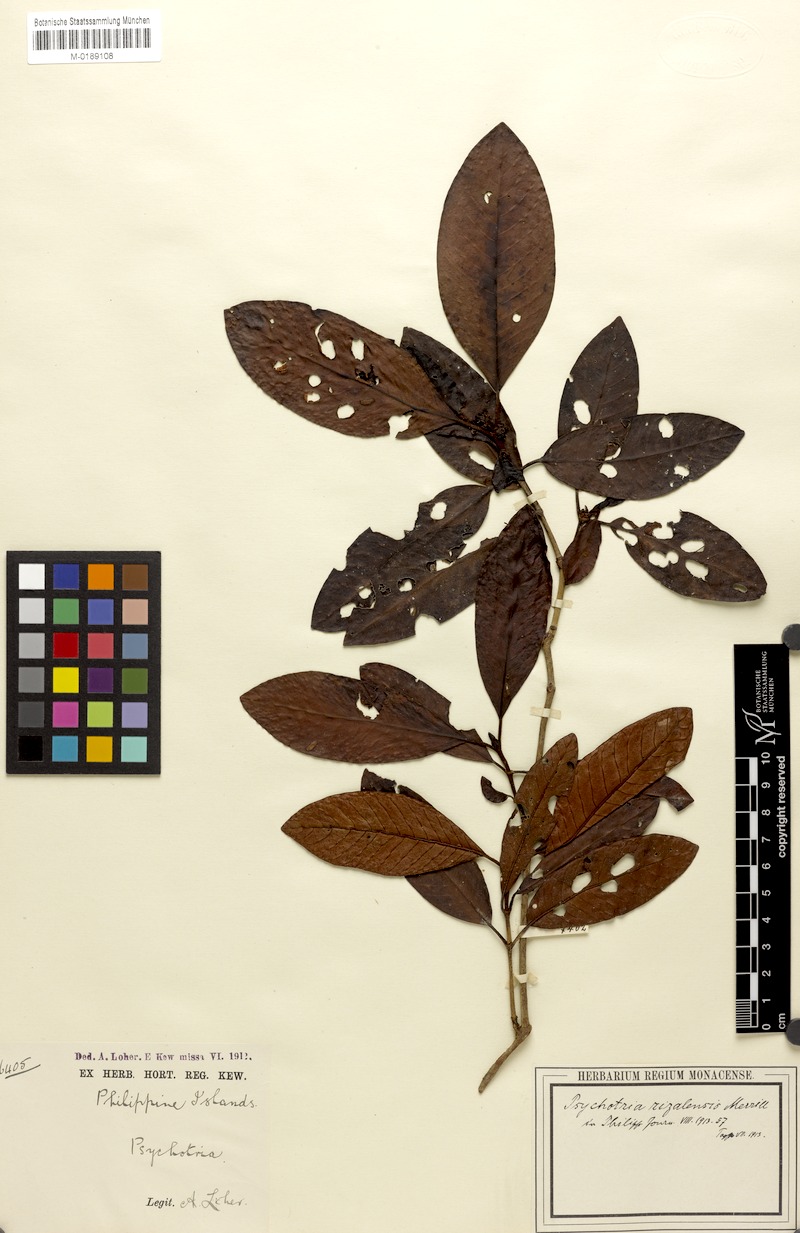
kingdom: Plantae
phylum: Tracheophyta
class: Magnoliopsida
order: Gentianales
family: Rubiaceae
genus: Psychotria
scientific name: Psychotria bataanensis
